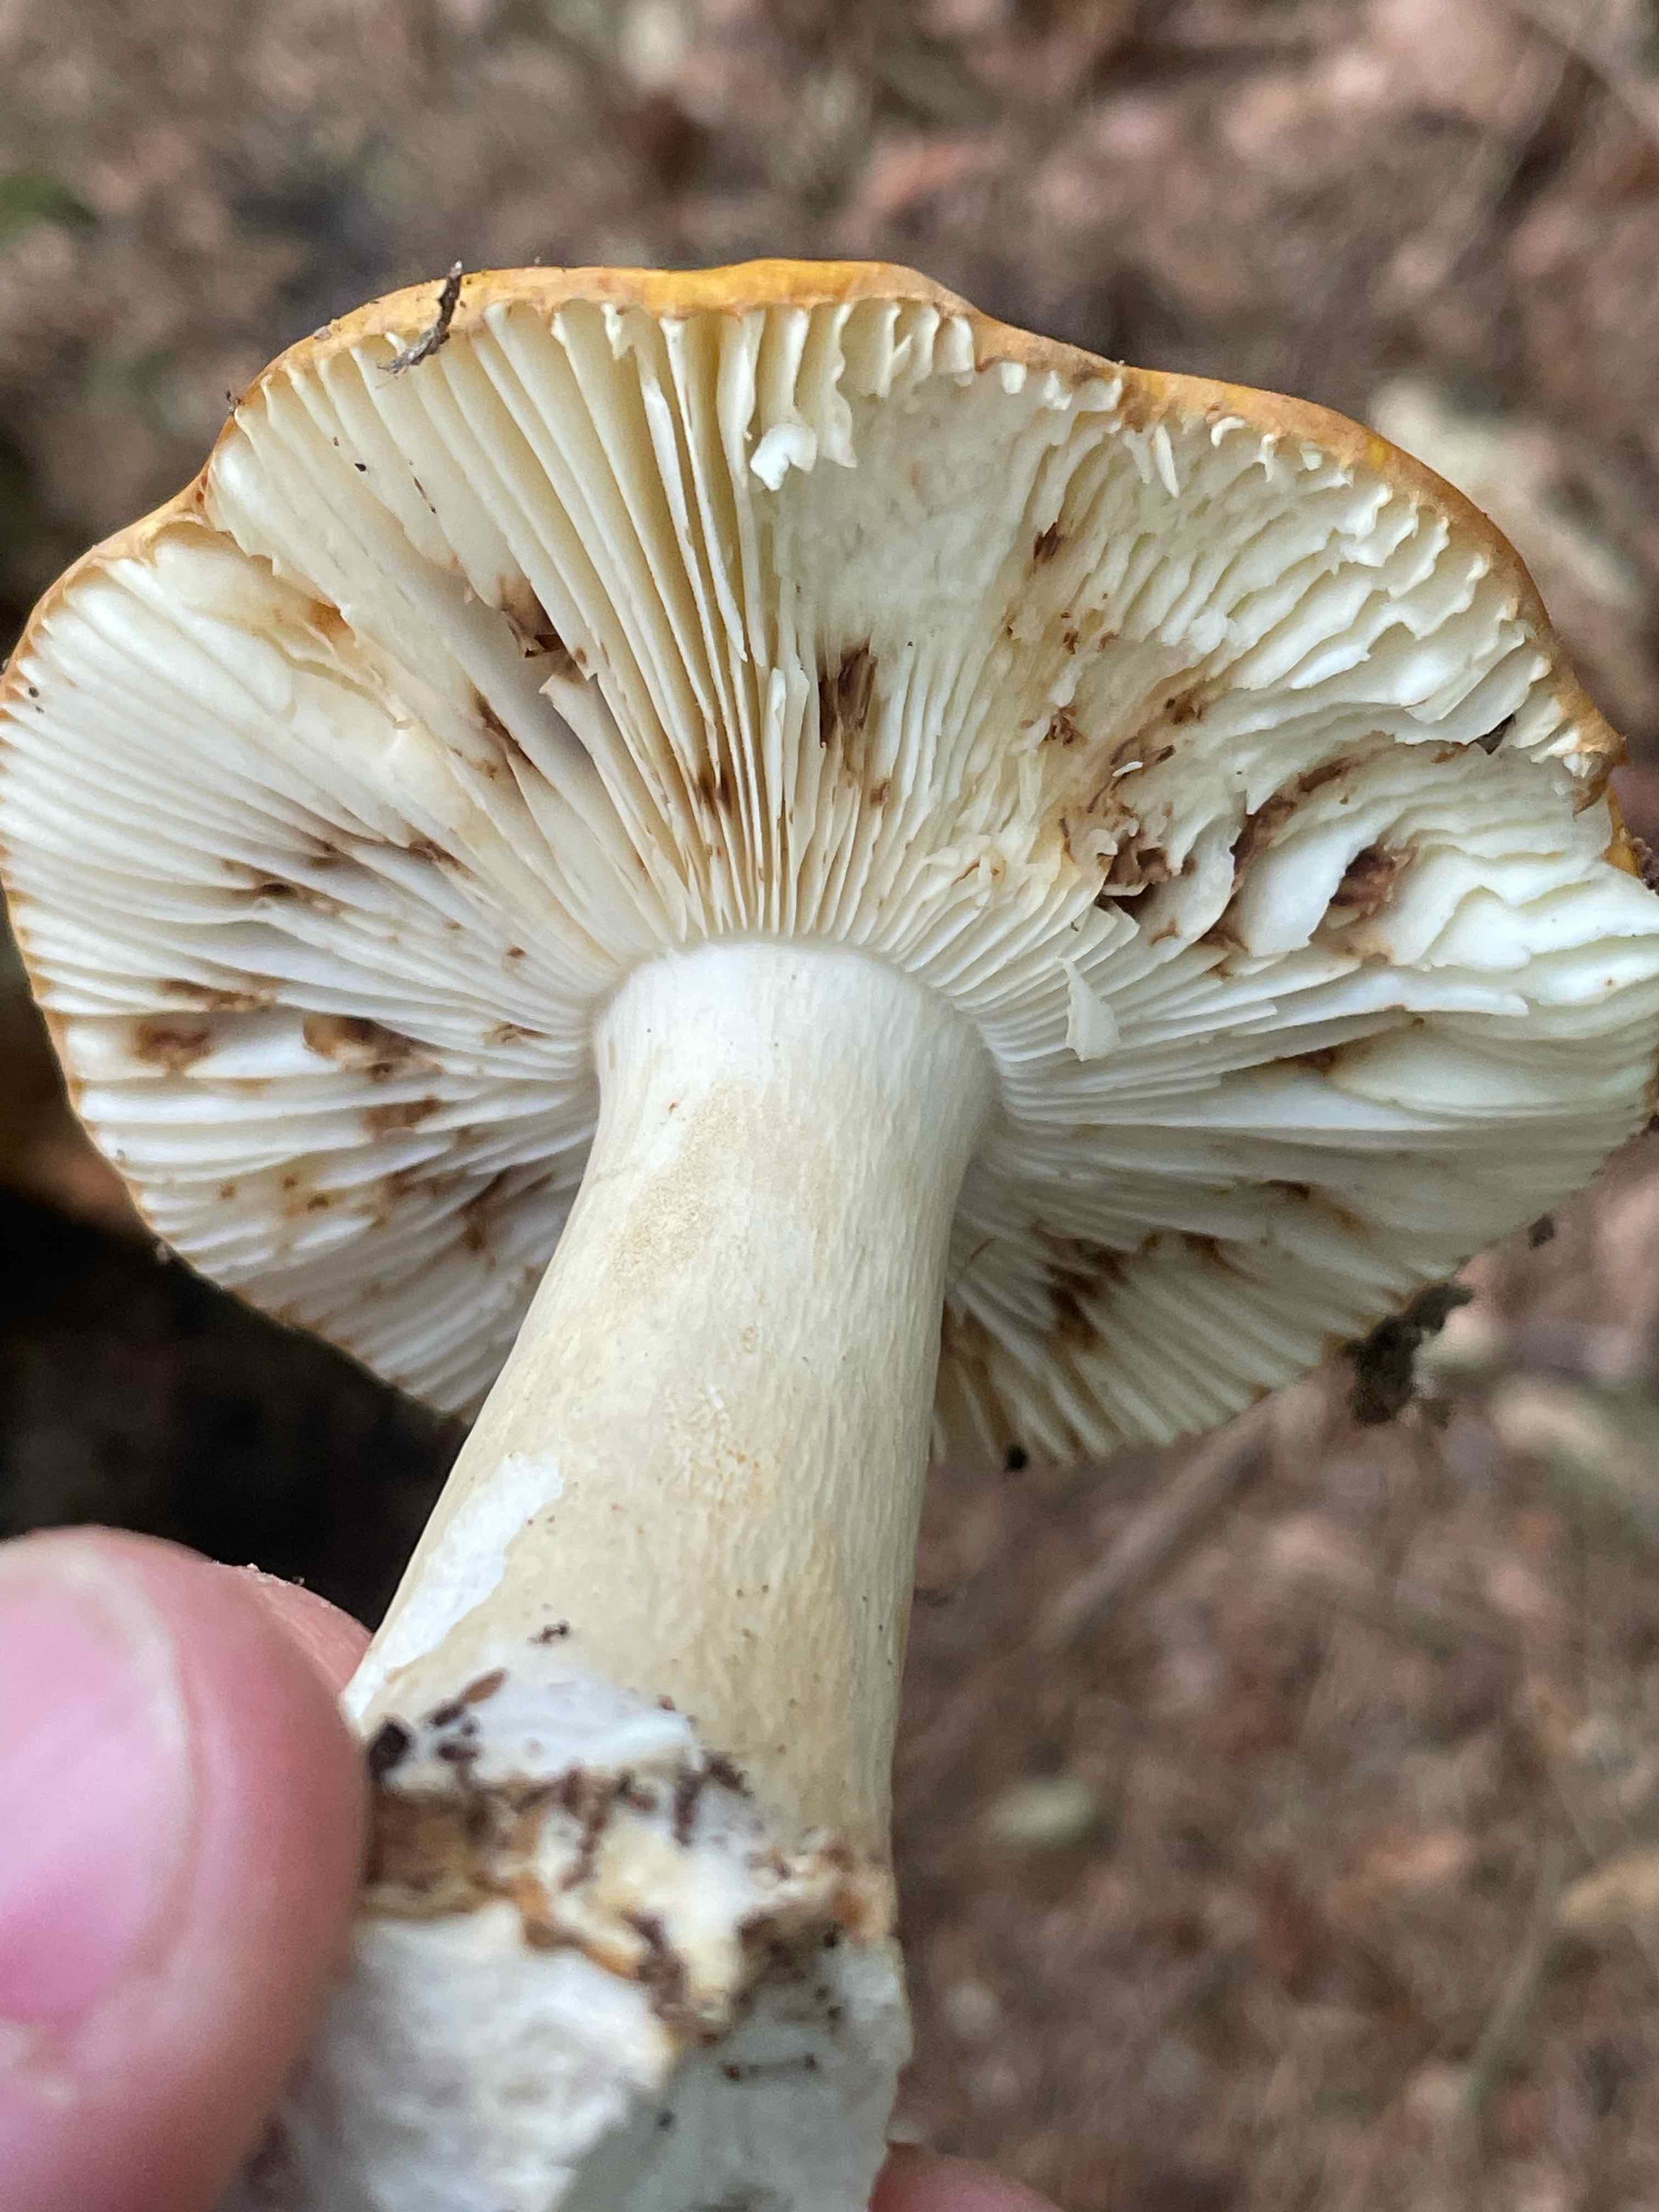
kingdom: Fungi
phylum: Basidiomycota
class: Agaricomycetes
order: Russulales
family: Russulaceae
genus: Russula
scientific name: Russula ochroleuca
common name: okkergul skørhat
